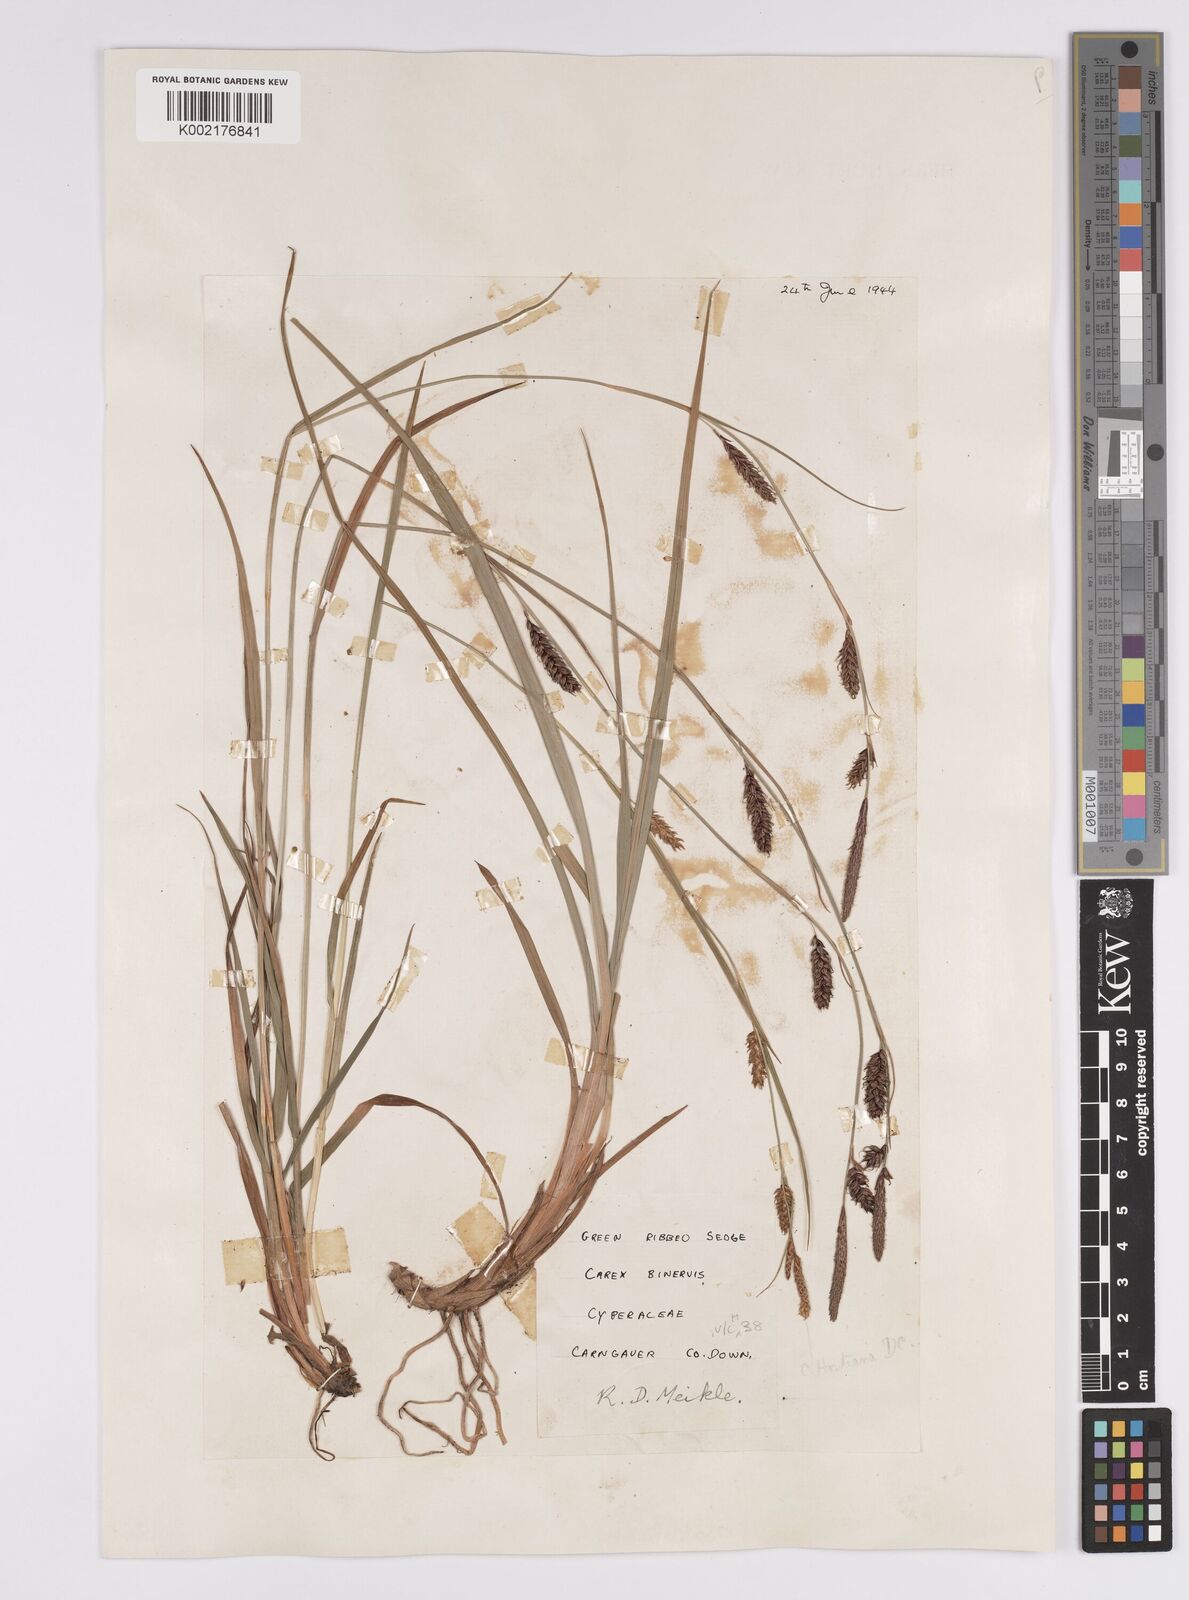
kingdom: Plantae
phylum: Tracheophyta
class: Liliopsida
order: Poales
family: Cyperaceae
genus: Carex
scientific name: Carex binervis
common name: Green-ribbed sedge
